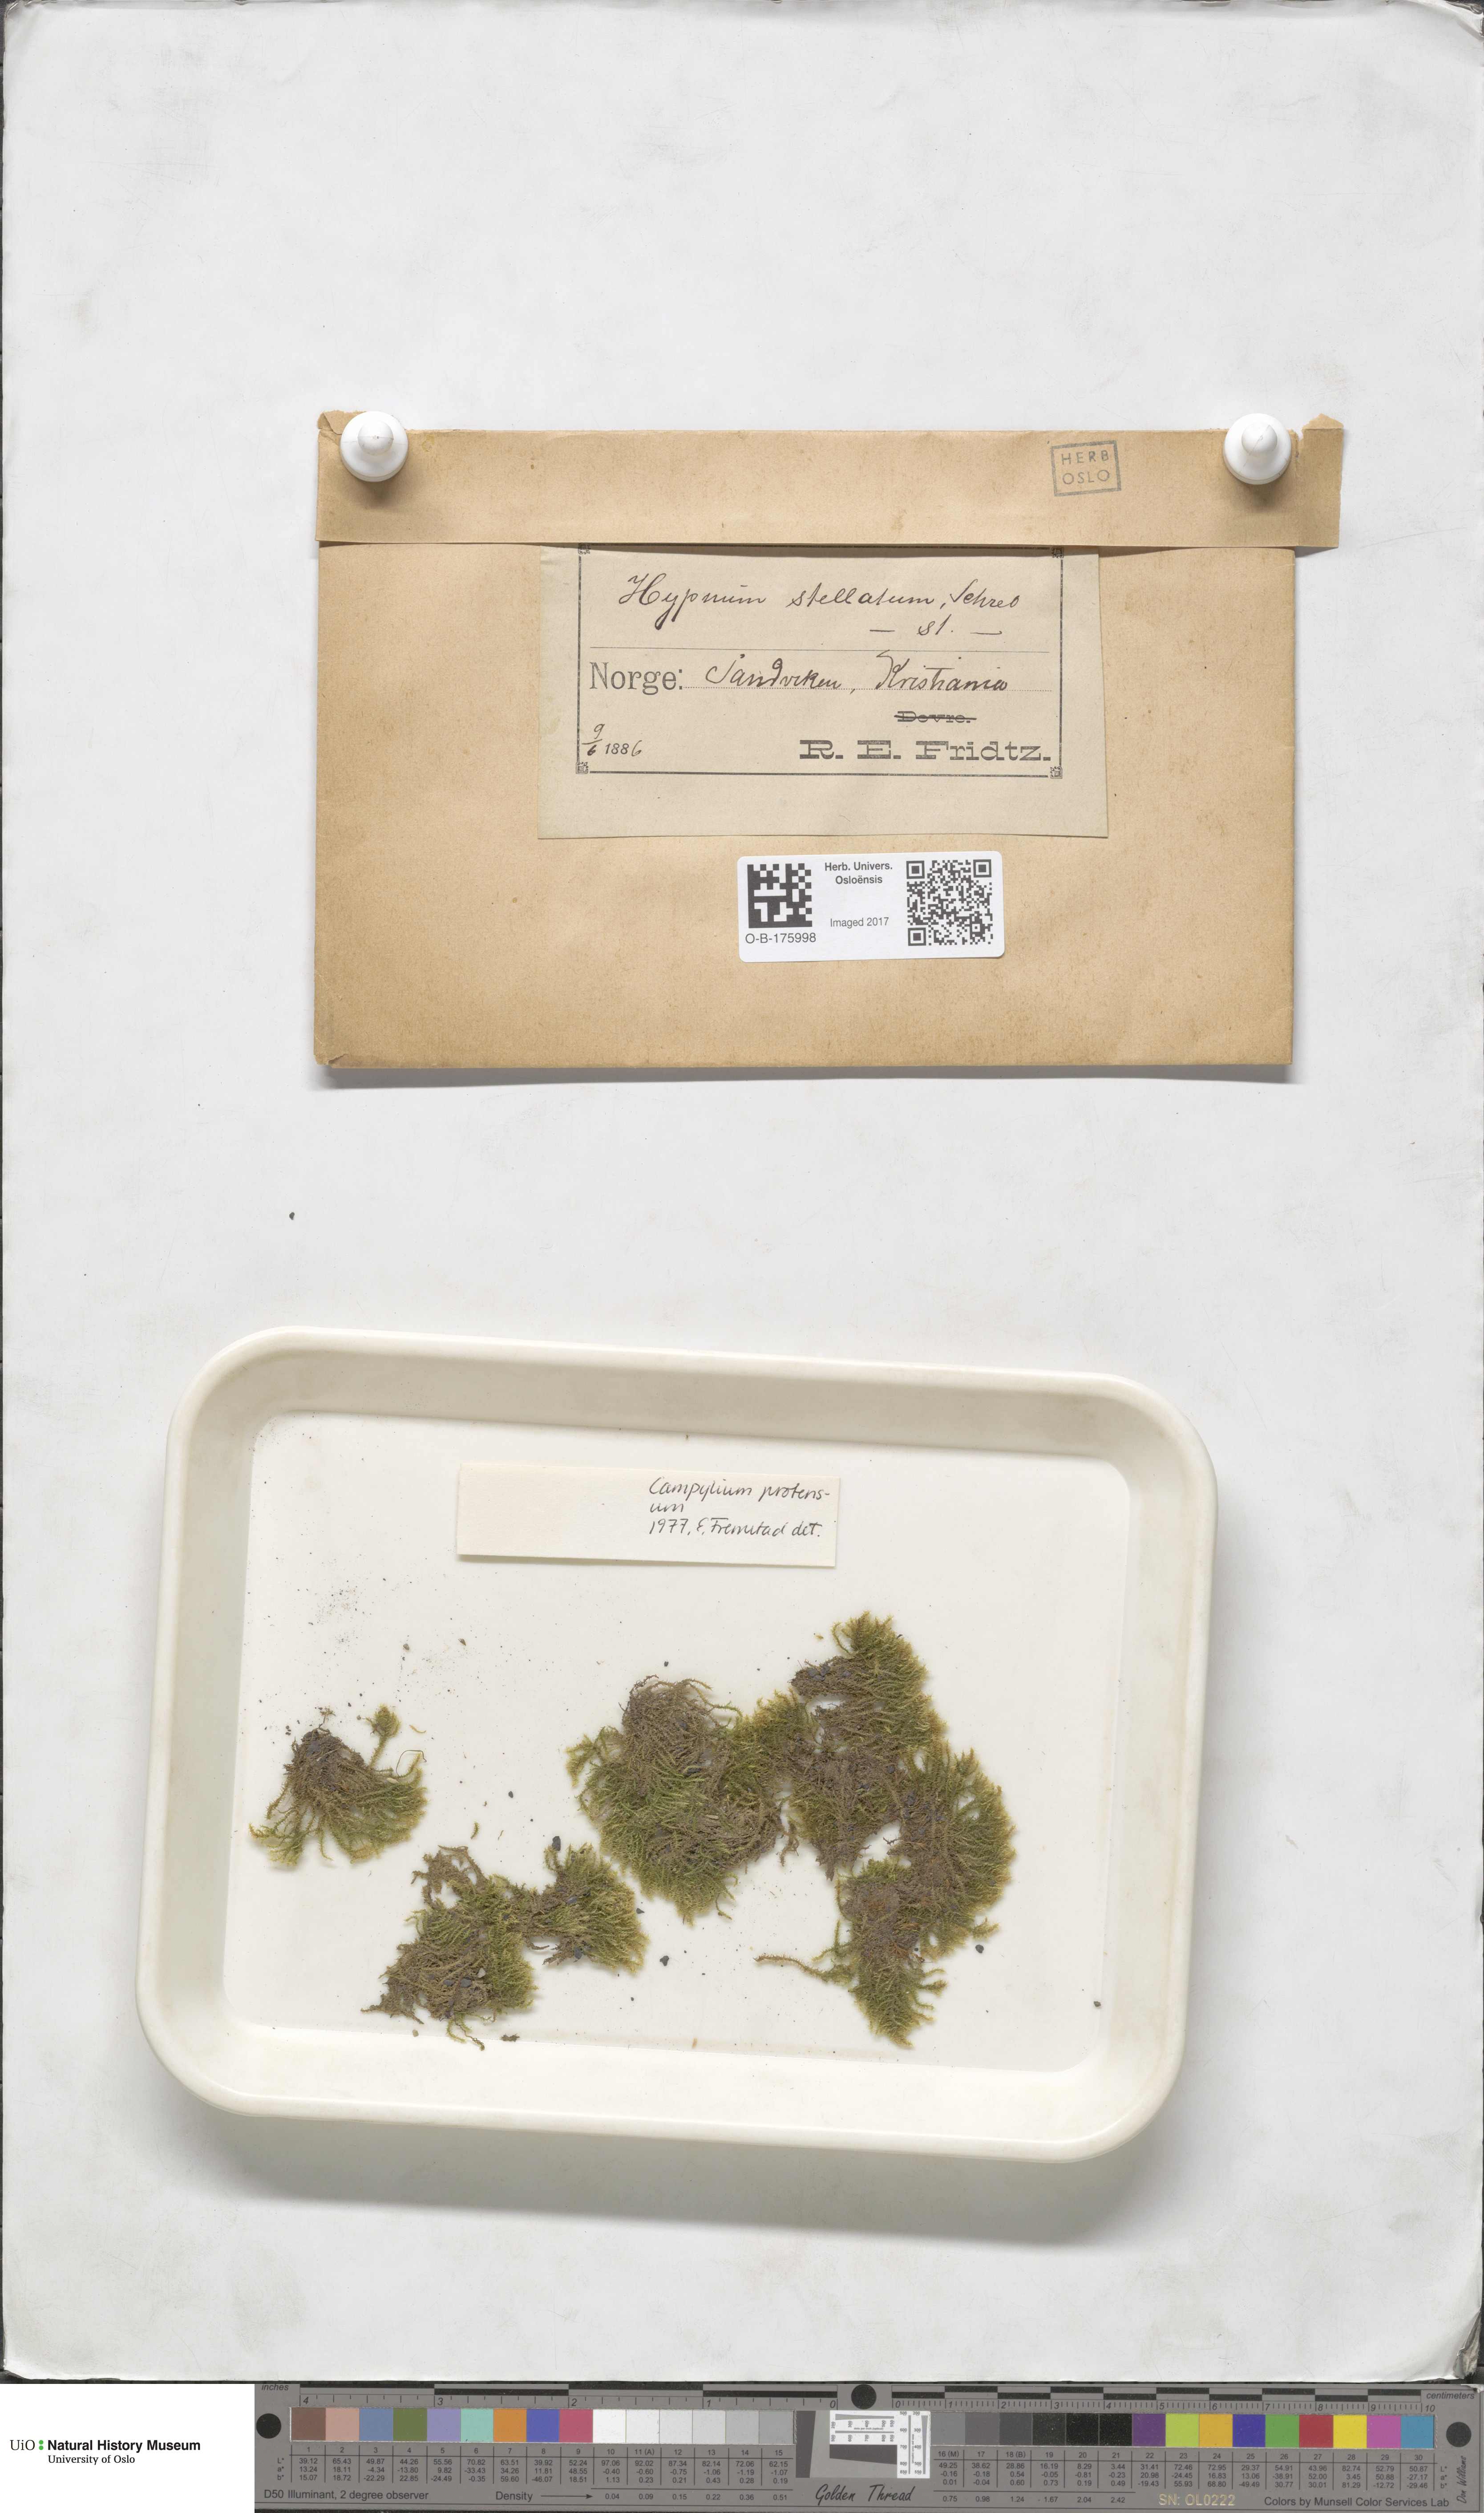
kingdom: Plantae
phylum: Bryophyta
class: Bryopsida
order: Hypnales
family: Amblystegiaceae
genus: Campylium
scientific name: Campylium stellatum
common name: Yellow starry fen moss
